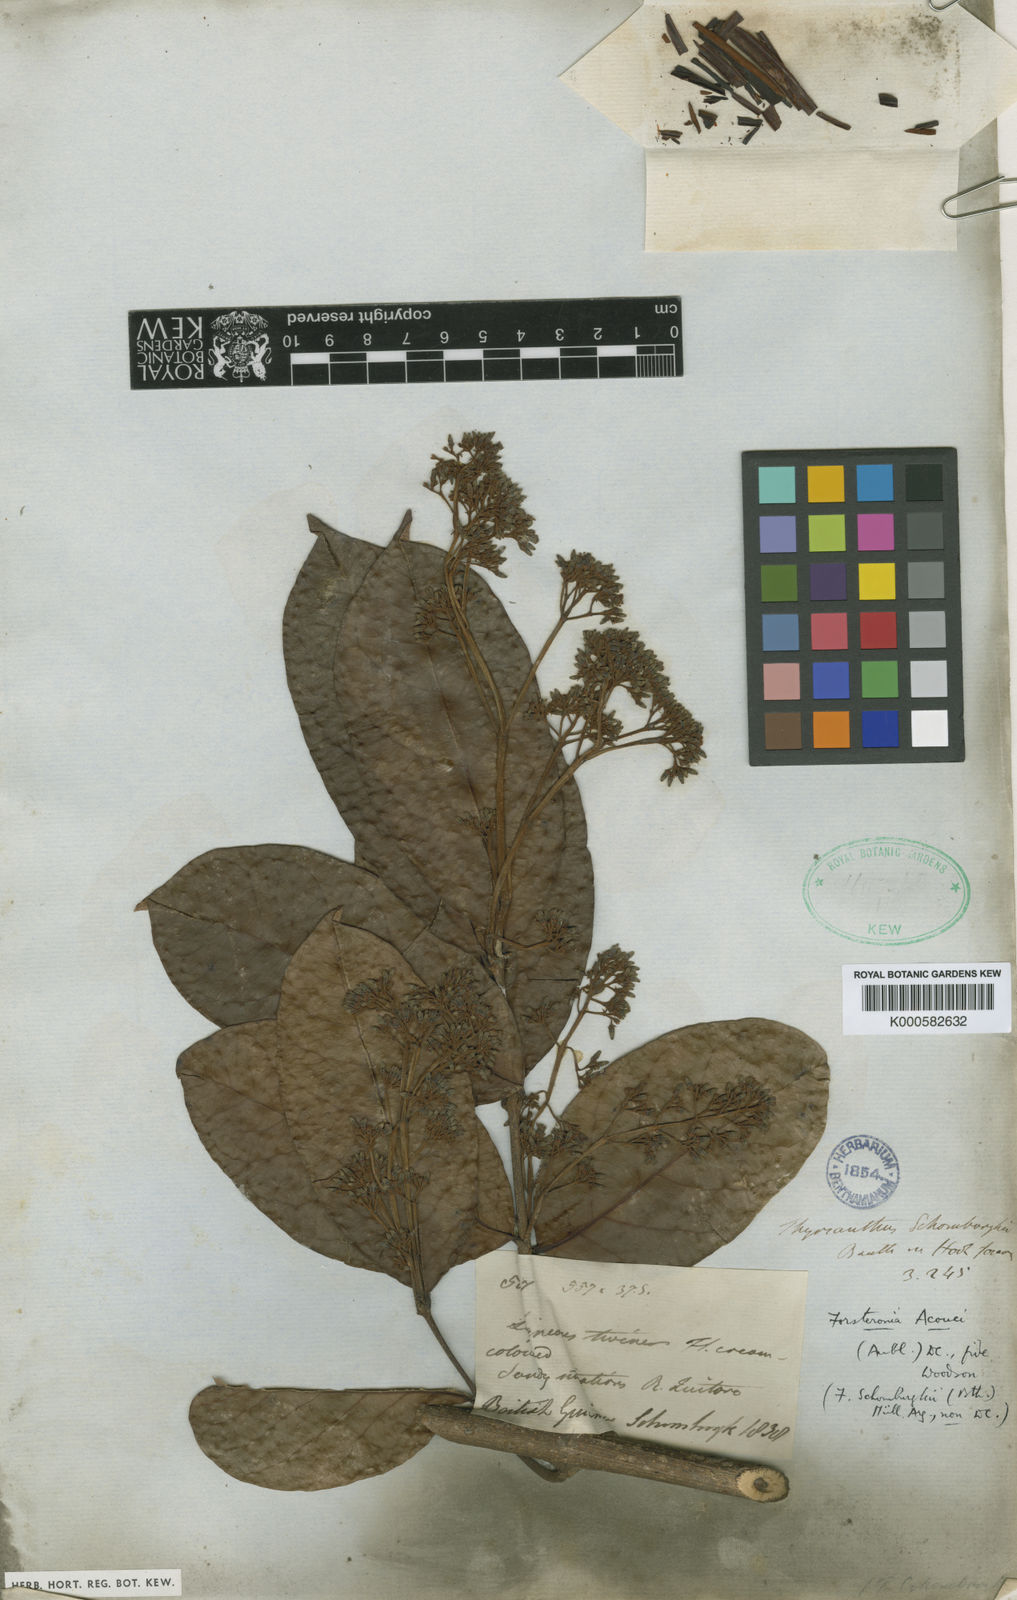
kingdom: Plantae
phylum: Tracheophyta
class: Magnoliopsida
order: Gentianales
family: Apocynaceae
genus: Forsteronia
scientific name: Forsteronia acouci
